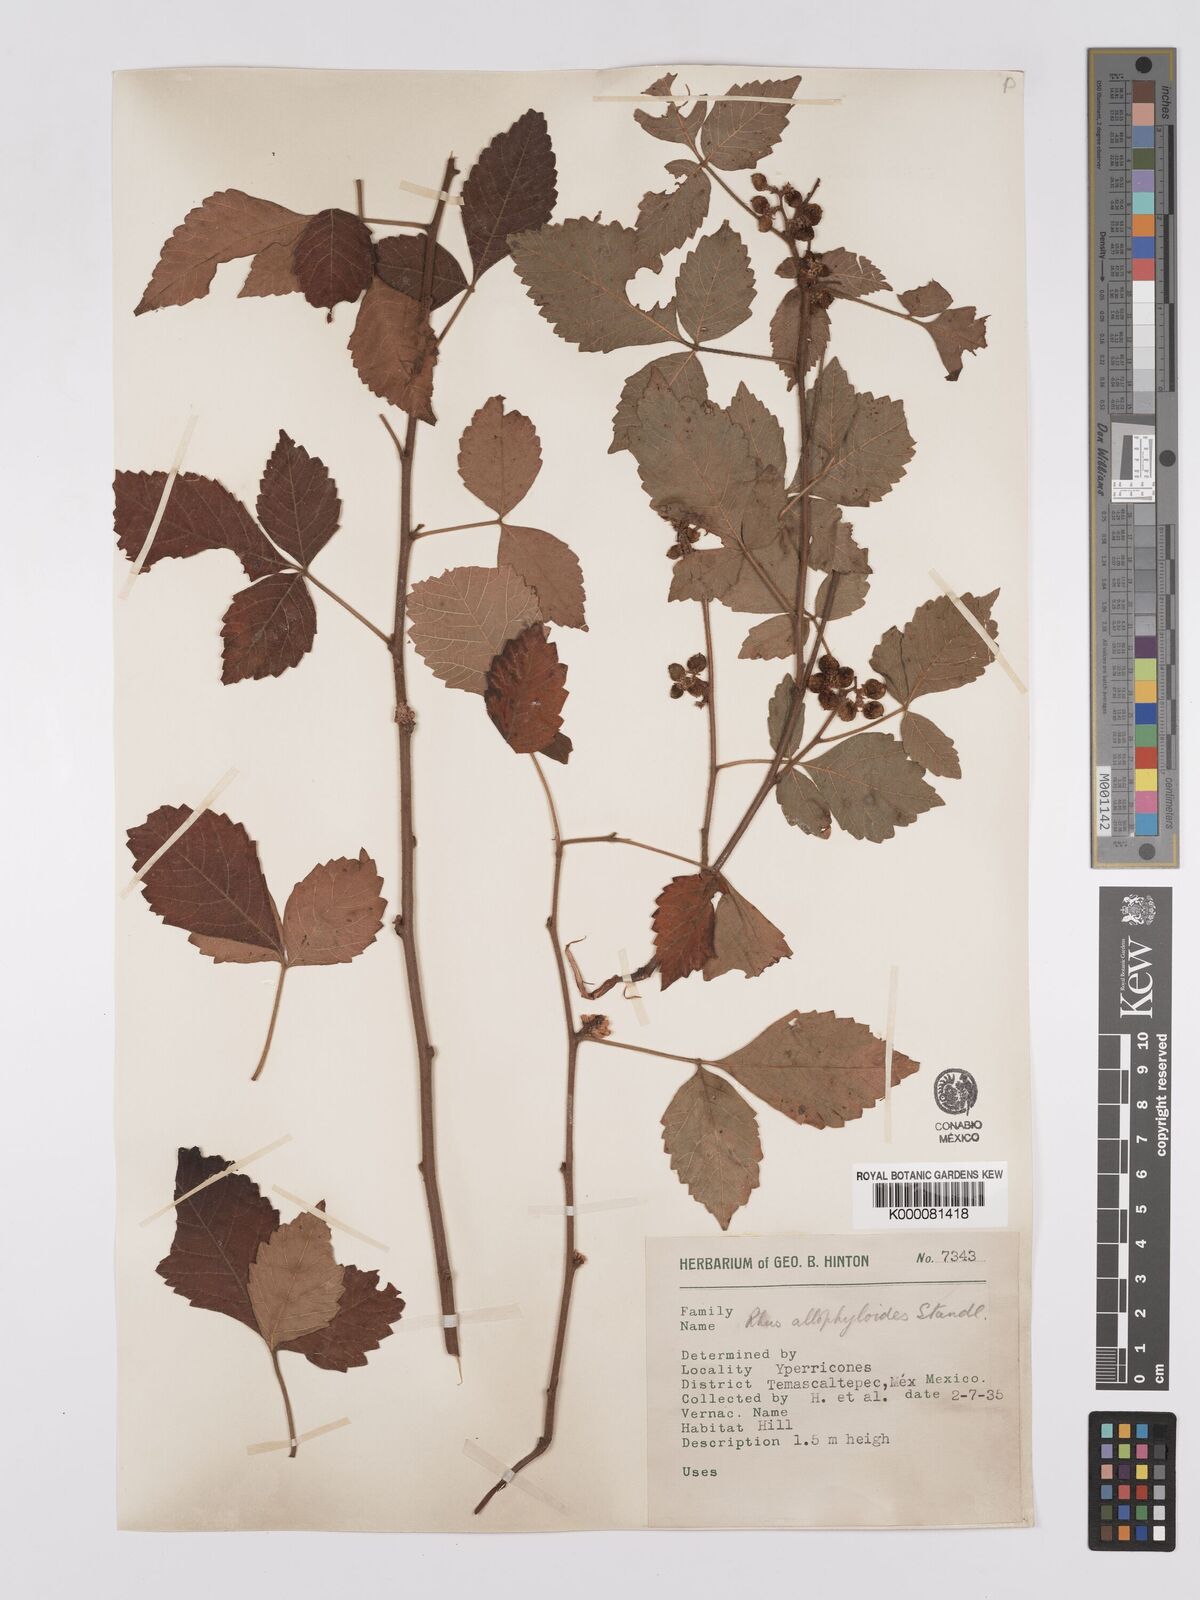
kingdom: Plantae
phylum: Tracheophyta
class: Magnoliopsida
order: Sapindales
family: Anacardiaceae
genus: Rhus
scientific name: Rhus allophyloides
